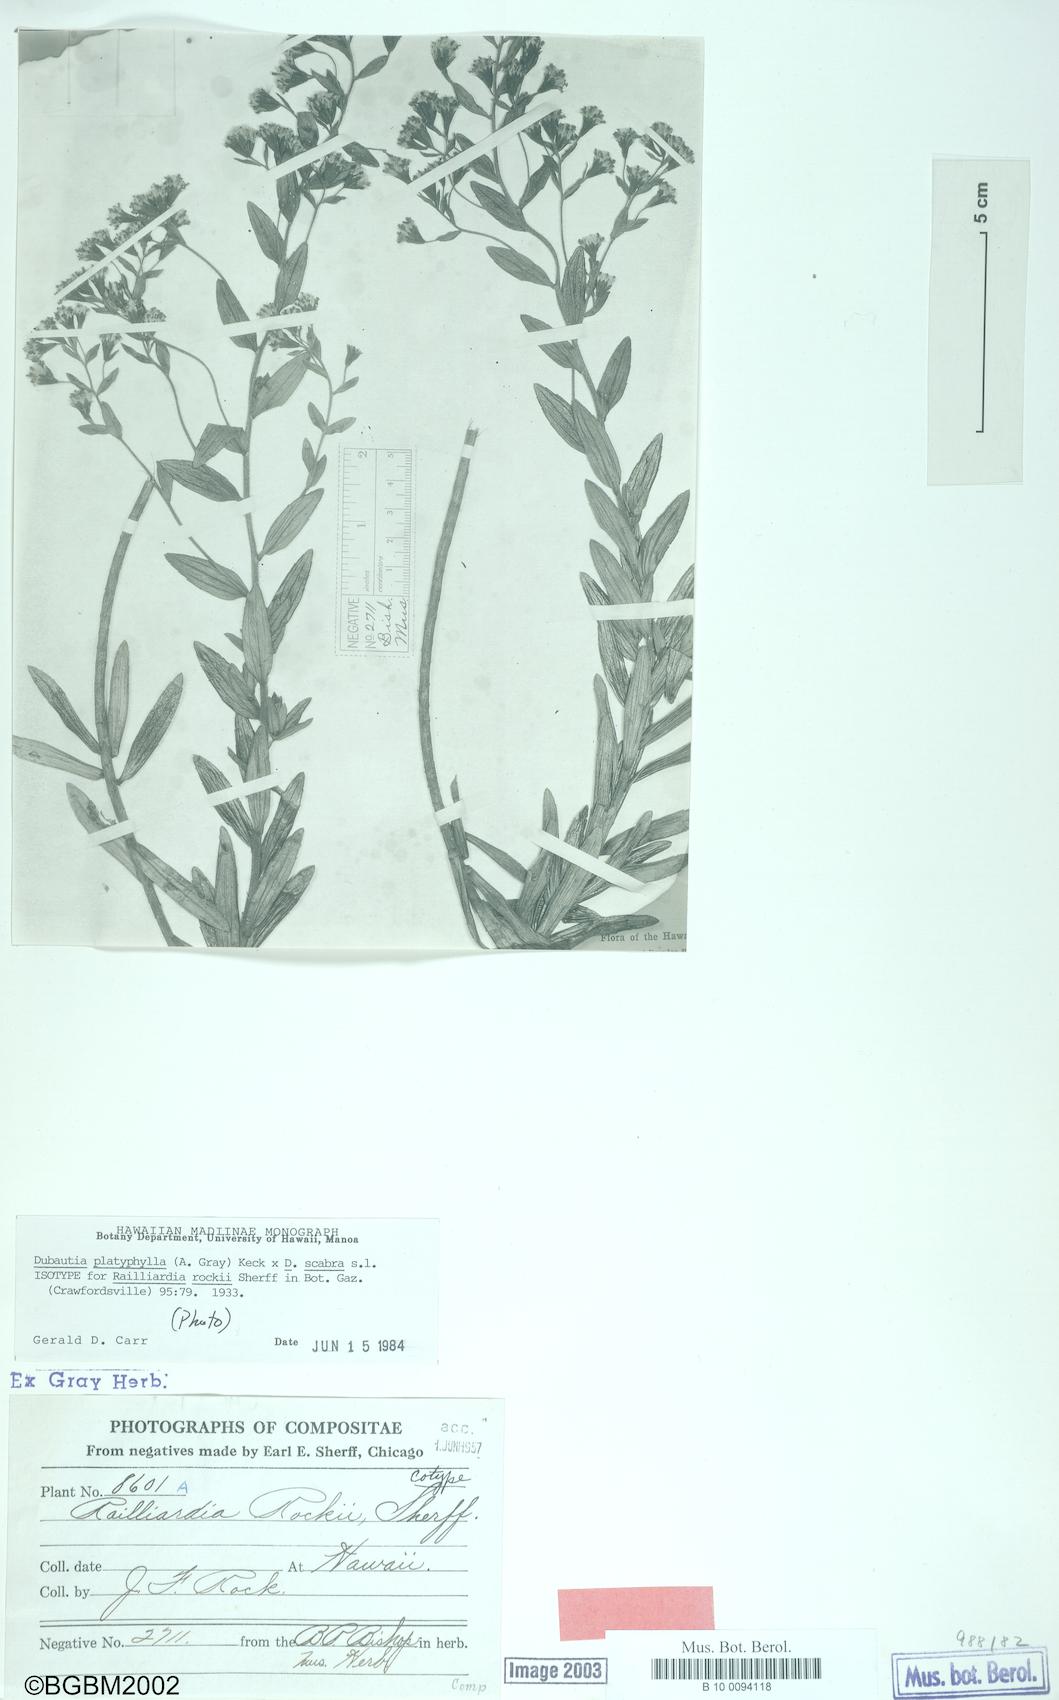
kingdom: Plantae
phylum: Tracheophyta
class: Magnoliopsida
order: Asterales
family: Asteraceae
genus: Dubautia
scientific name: Dubautia menziesii
